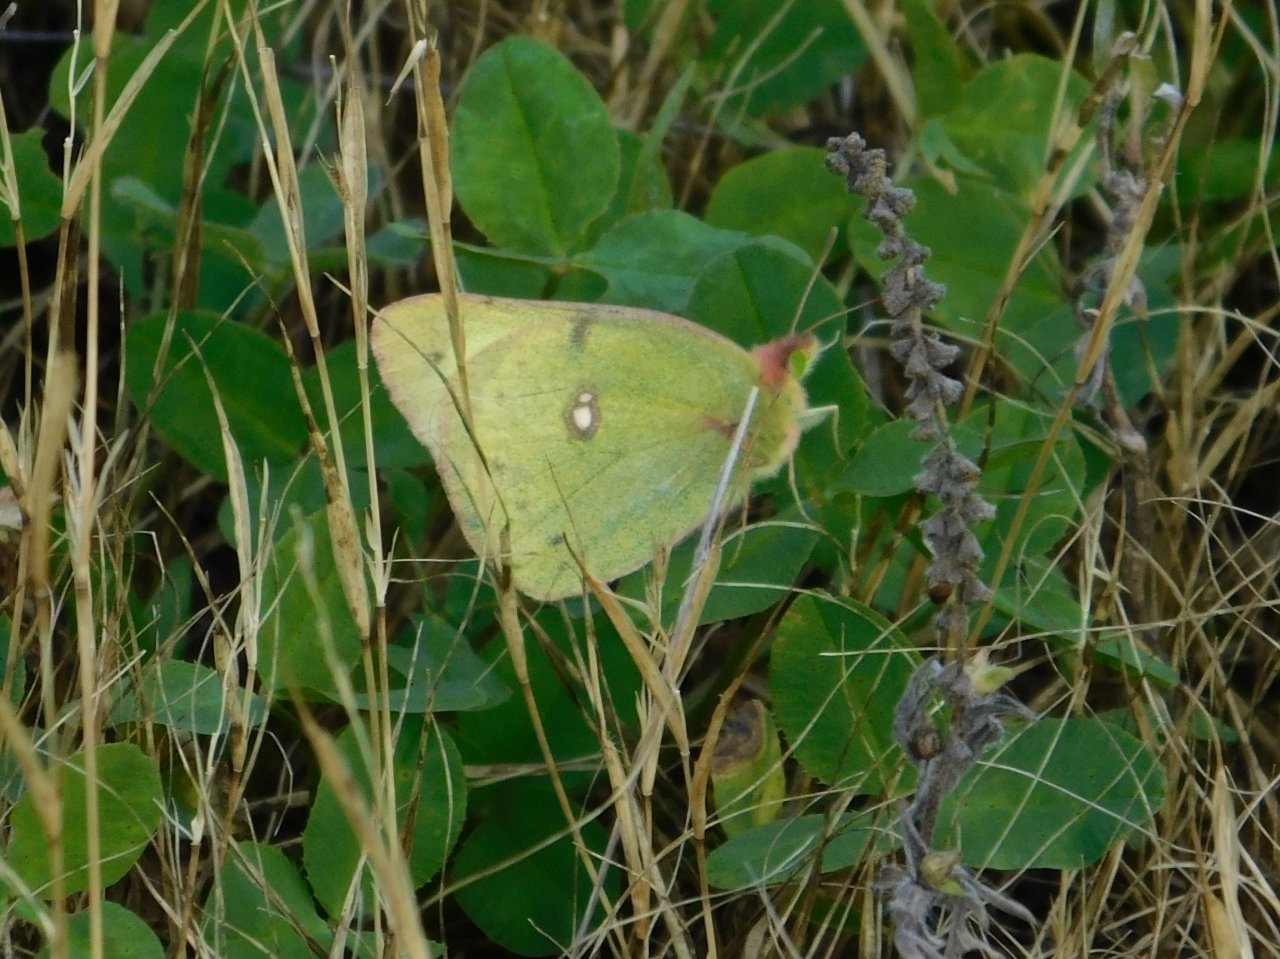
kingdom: Animalia
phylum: Arthropoda
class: Insecta
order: Lepidoptera
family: Pieridae
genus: Colias
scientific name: Colias philodice
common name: Clouded Sulphur
